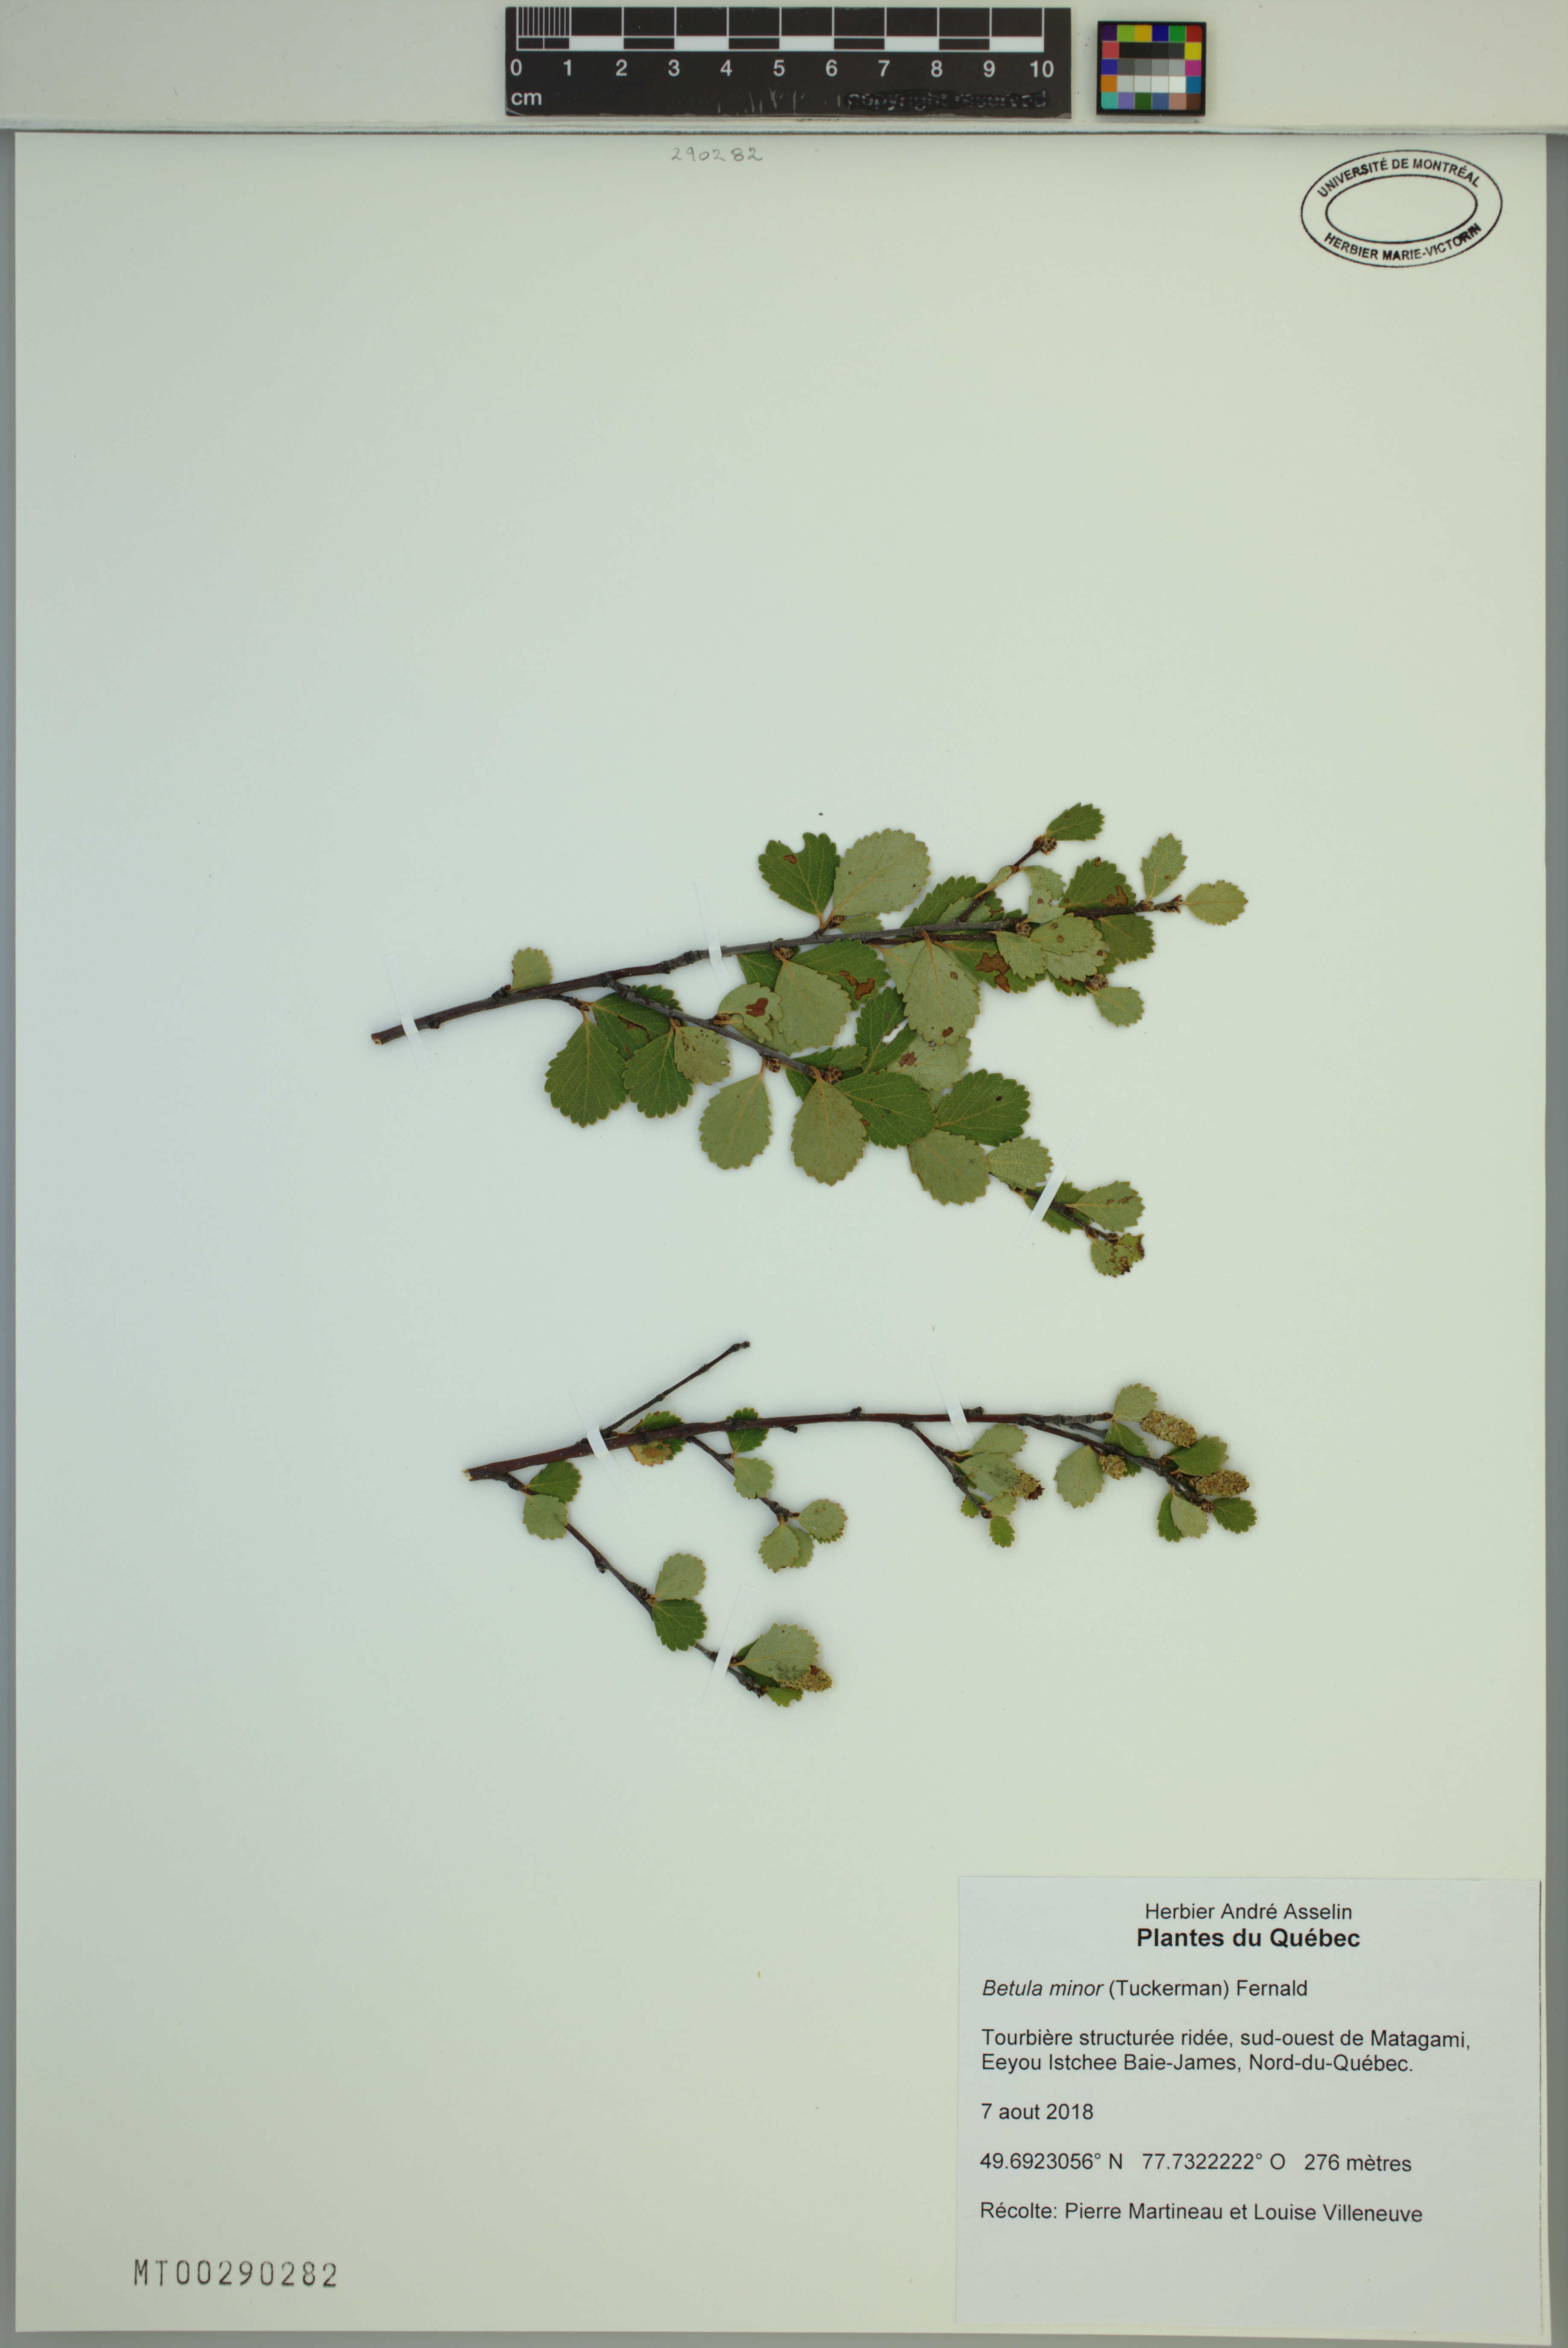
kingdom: Plantae
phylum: Tracheophyta
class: Magnoliopsida
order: Fagales
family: Betulaceae
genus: Betula
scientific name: Betula minor
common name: Dwarf birch
